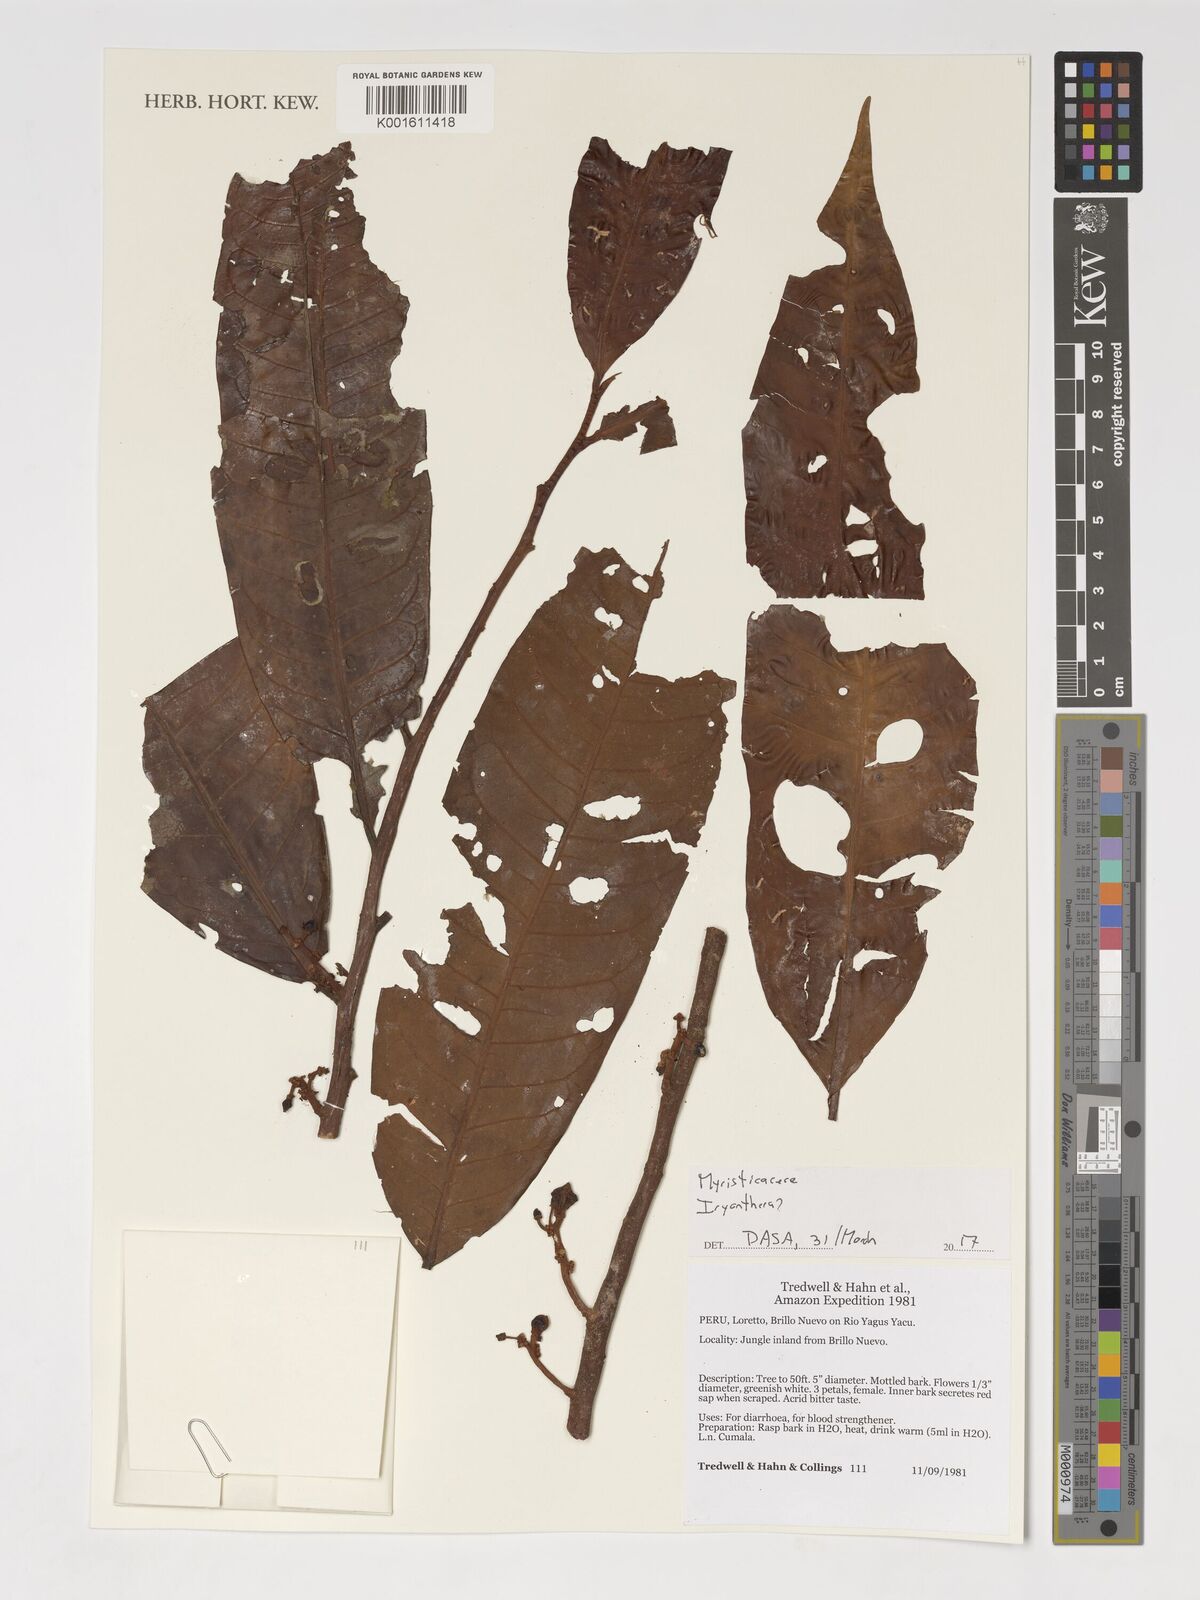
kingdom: Plantae
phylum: Tracheophyta
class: Magnoliopsida
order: Magnoliales
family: Myristicaceae
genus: Iryanthera
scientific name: Iryanthera
